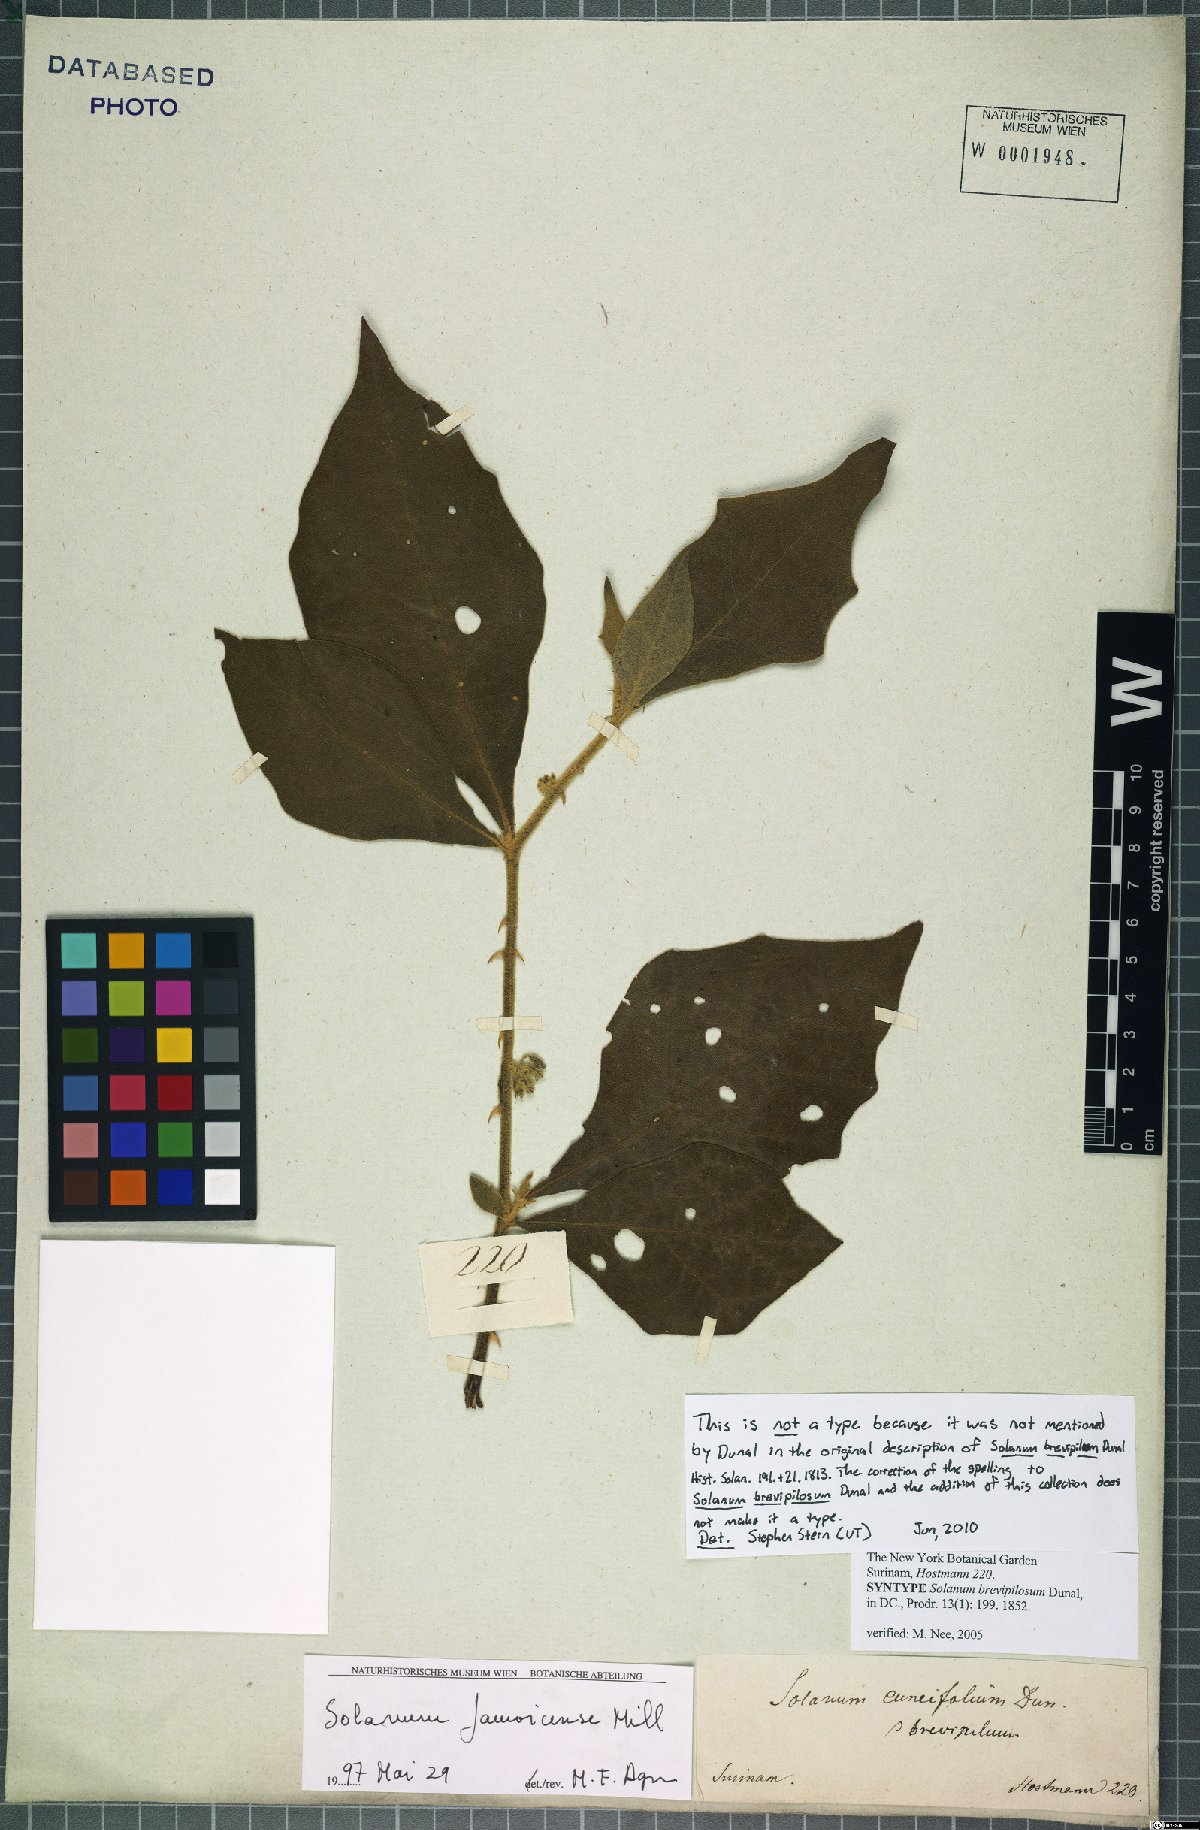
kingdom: Plantae
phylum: Tracheophyta
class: Magnoliopsida
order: Solanales
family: Solanaceae
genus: Solanum
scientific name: Solanum jamaicense
